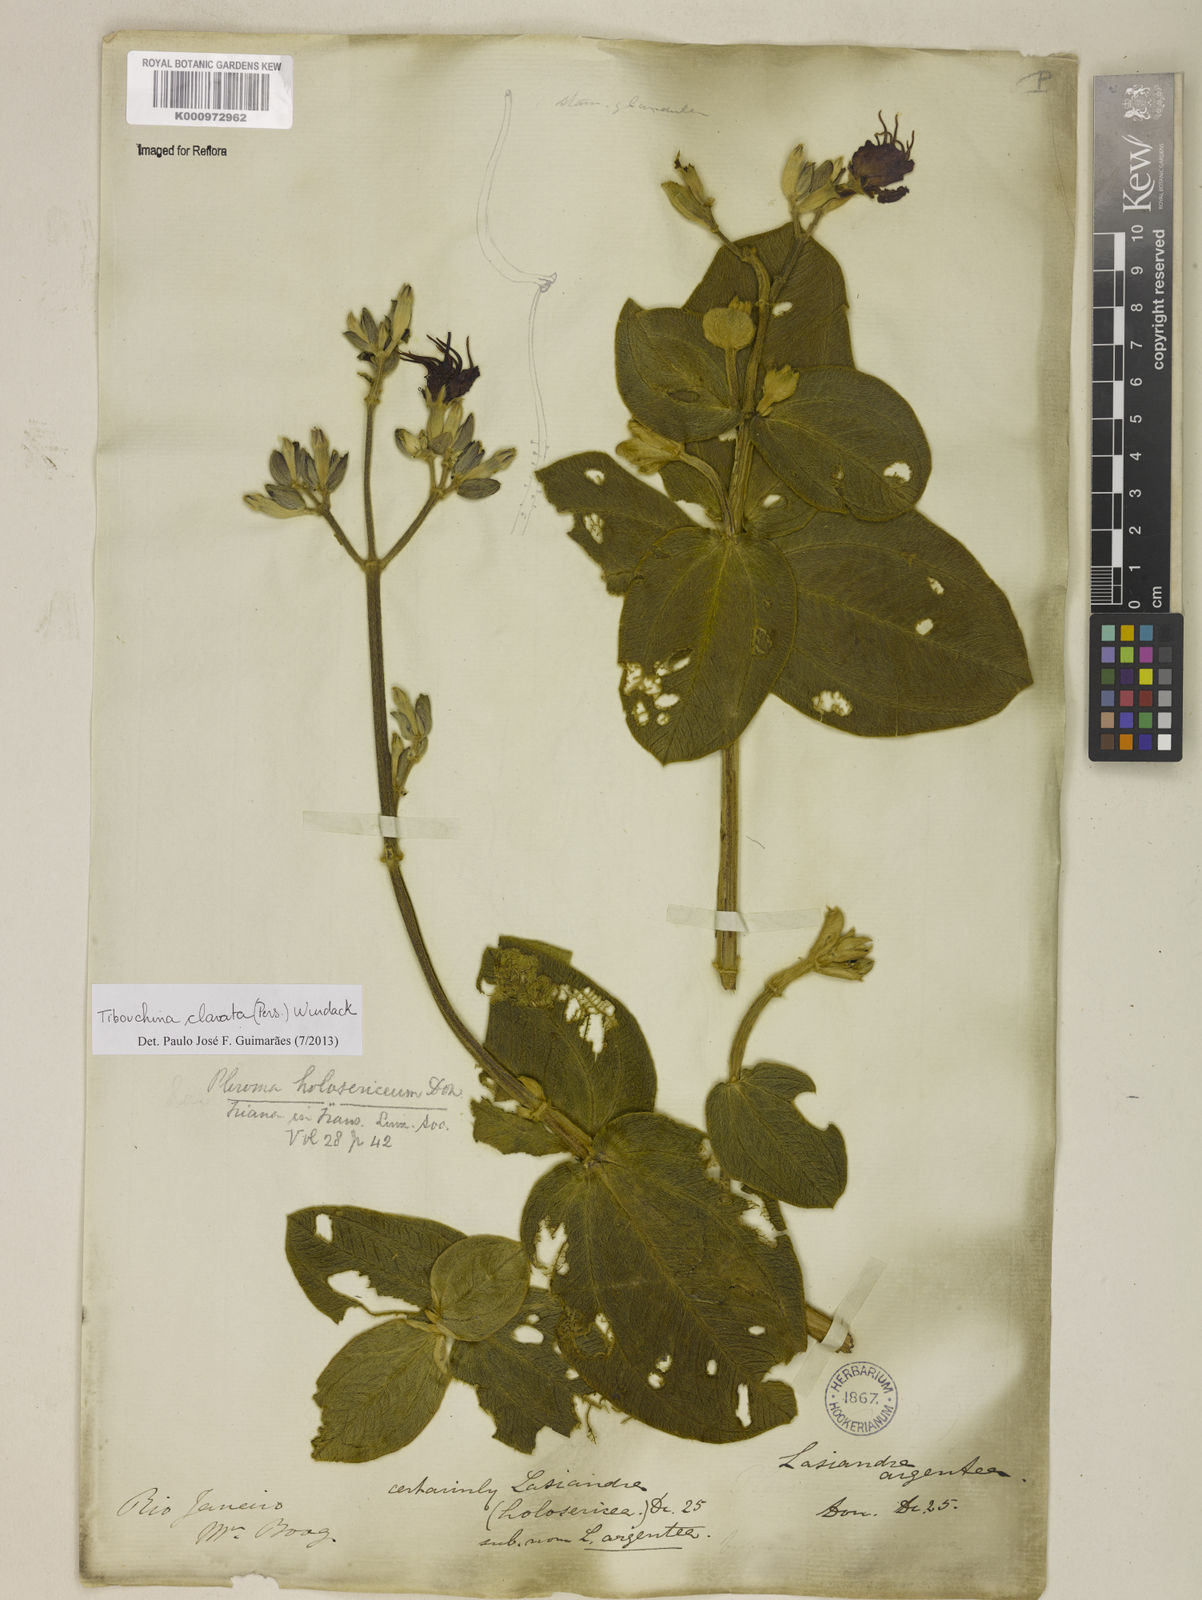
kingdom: Plantae
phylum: Tracheophyta
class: Magnoliopsida
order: Myrtales
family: Melastomataceae
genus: Pleroma
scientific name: Pleroma clavatum
